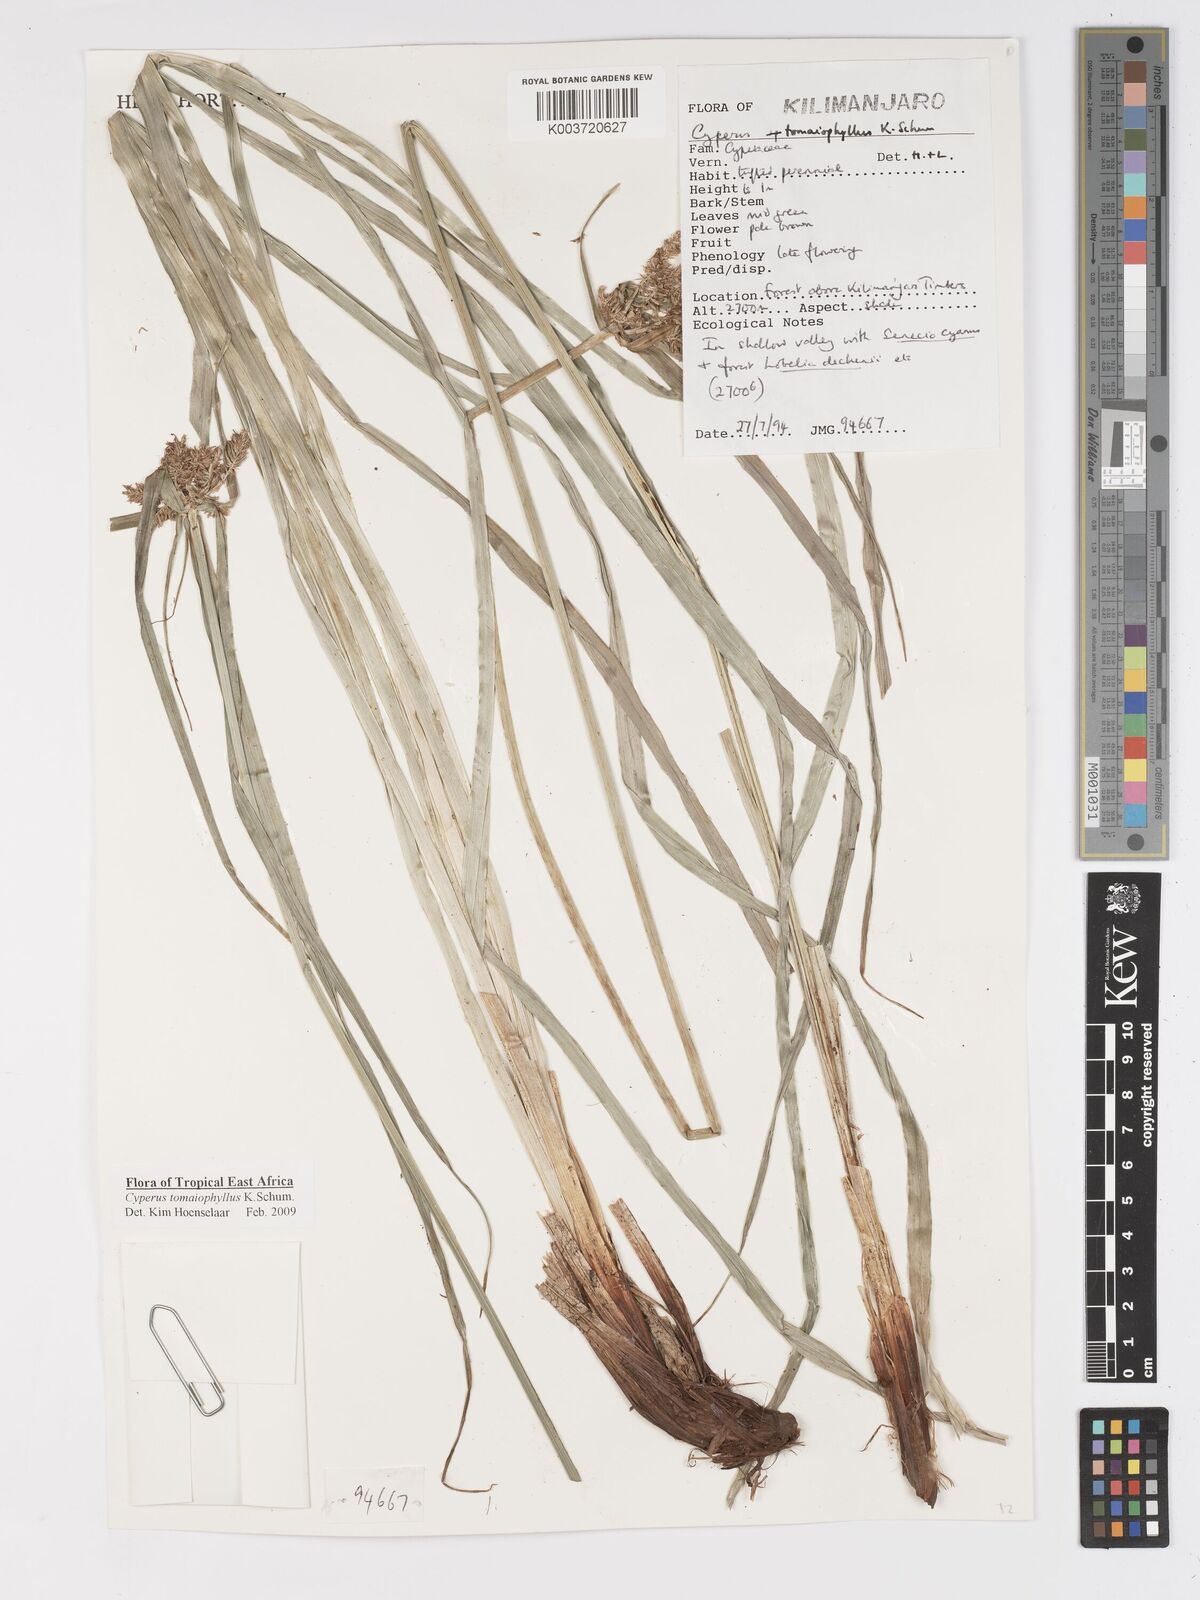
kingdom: Plantae
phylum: Tracheophyta
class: Liliopsida
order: Poales
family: Cyperaceae
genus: Cyperus
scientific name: Cyperus tomaiophyllus
